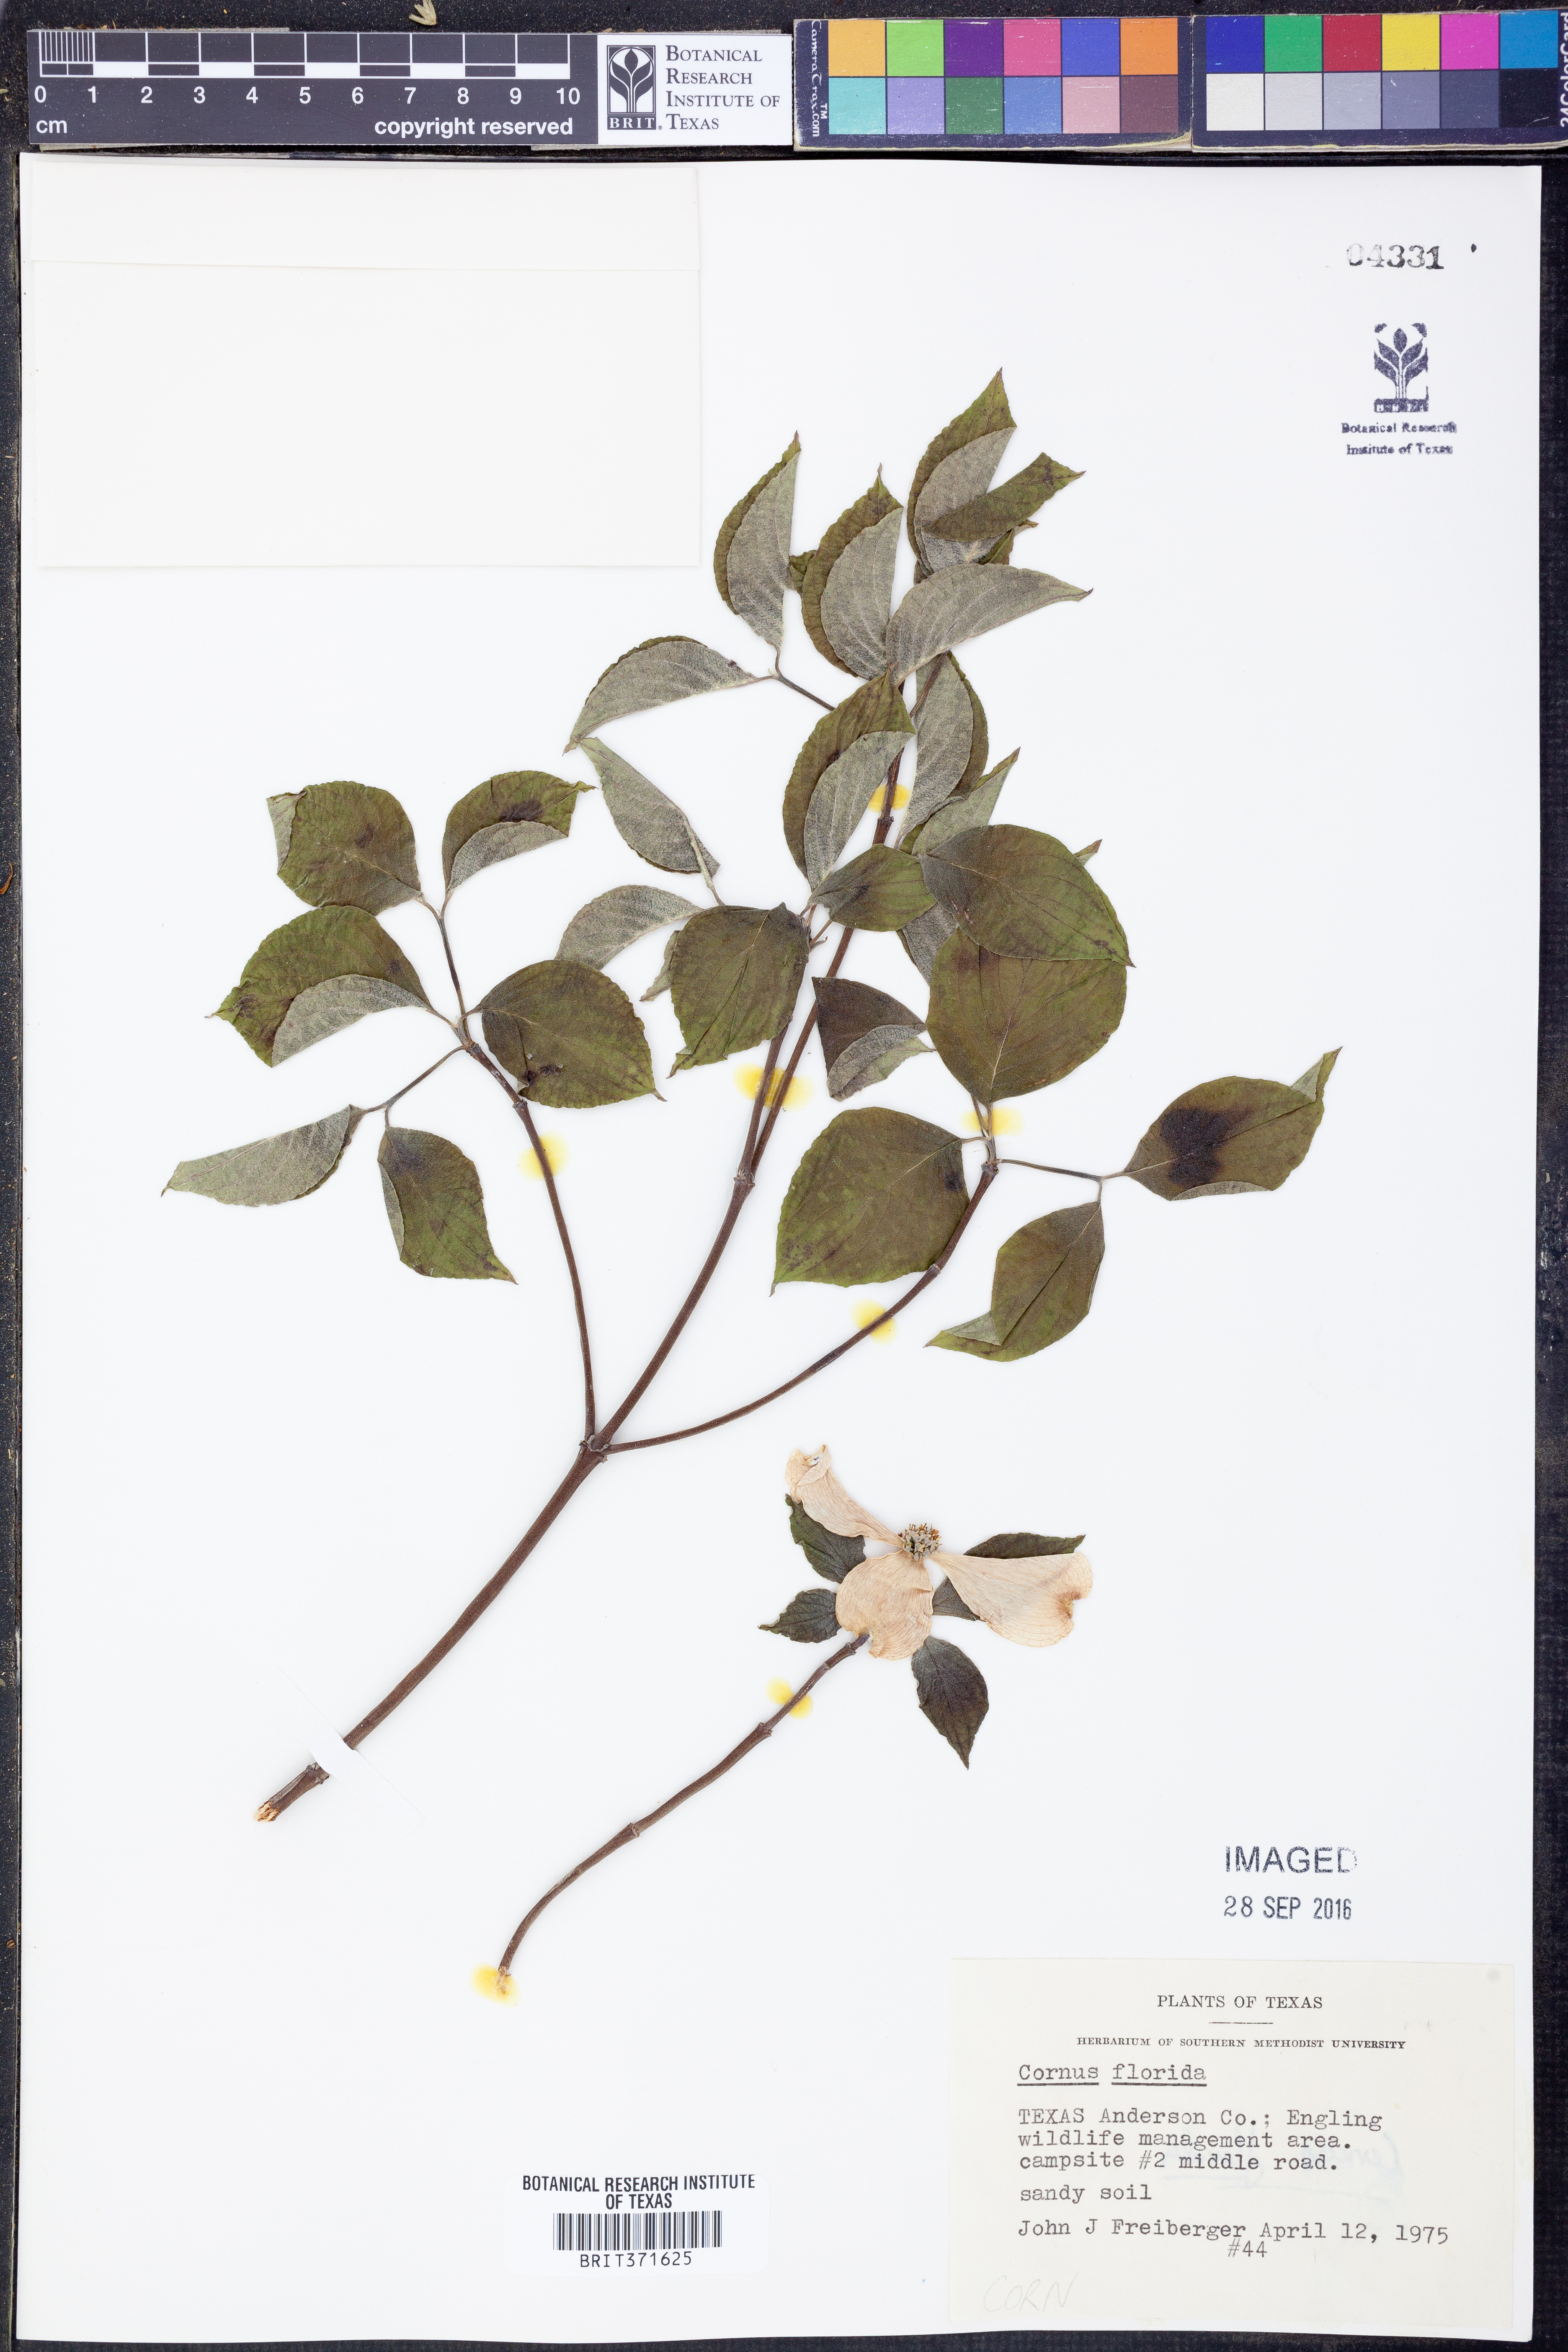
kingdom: Plantae
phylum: Tracheophyta
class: Magnoliopsida
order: Cornales
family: Cornaceae
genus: Cornus
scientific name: Cornus florida
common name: Flowering dogwood
